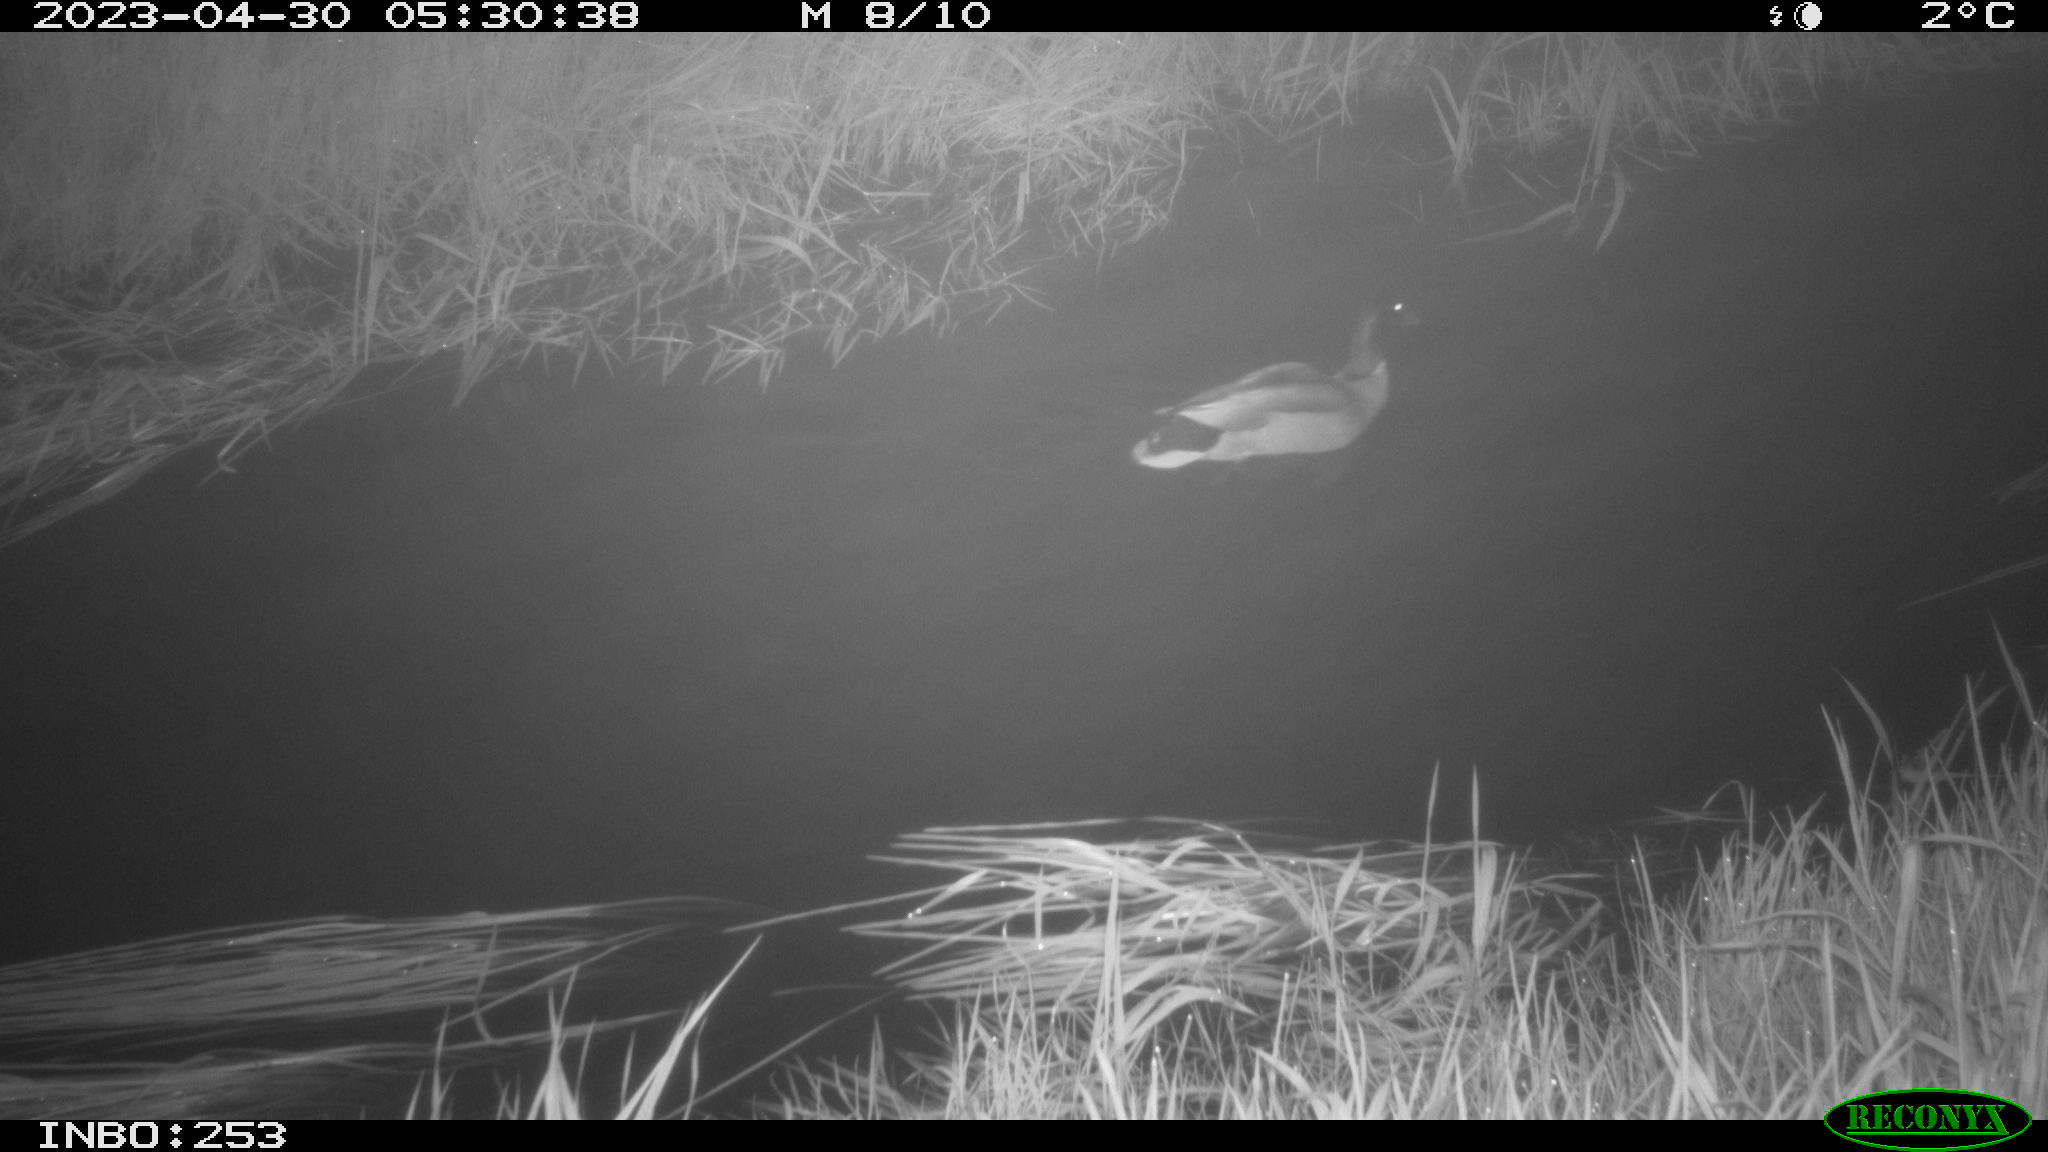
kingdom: Animalia
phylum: Chordata
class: Aves
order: Anseriformes
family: Anatidae
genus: Anas
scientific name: Anas
